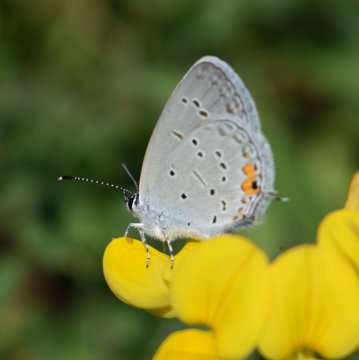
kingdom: Animalia
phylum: Arthropoda
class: Insecta
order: Lepidoptera
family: Lycaenidae
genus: Elkalyce
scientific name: Elkalyce comyntas
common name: Eastern Tailed-Blue
